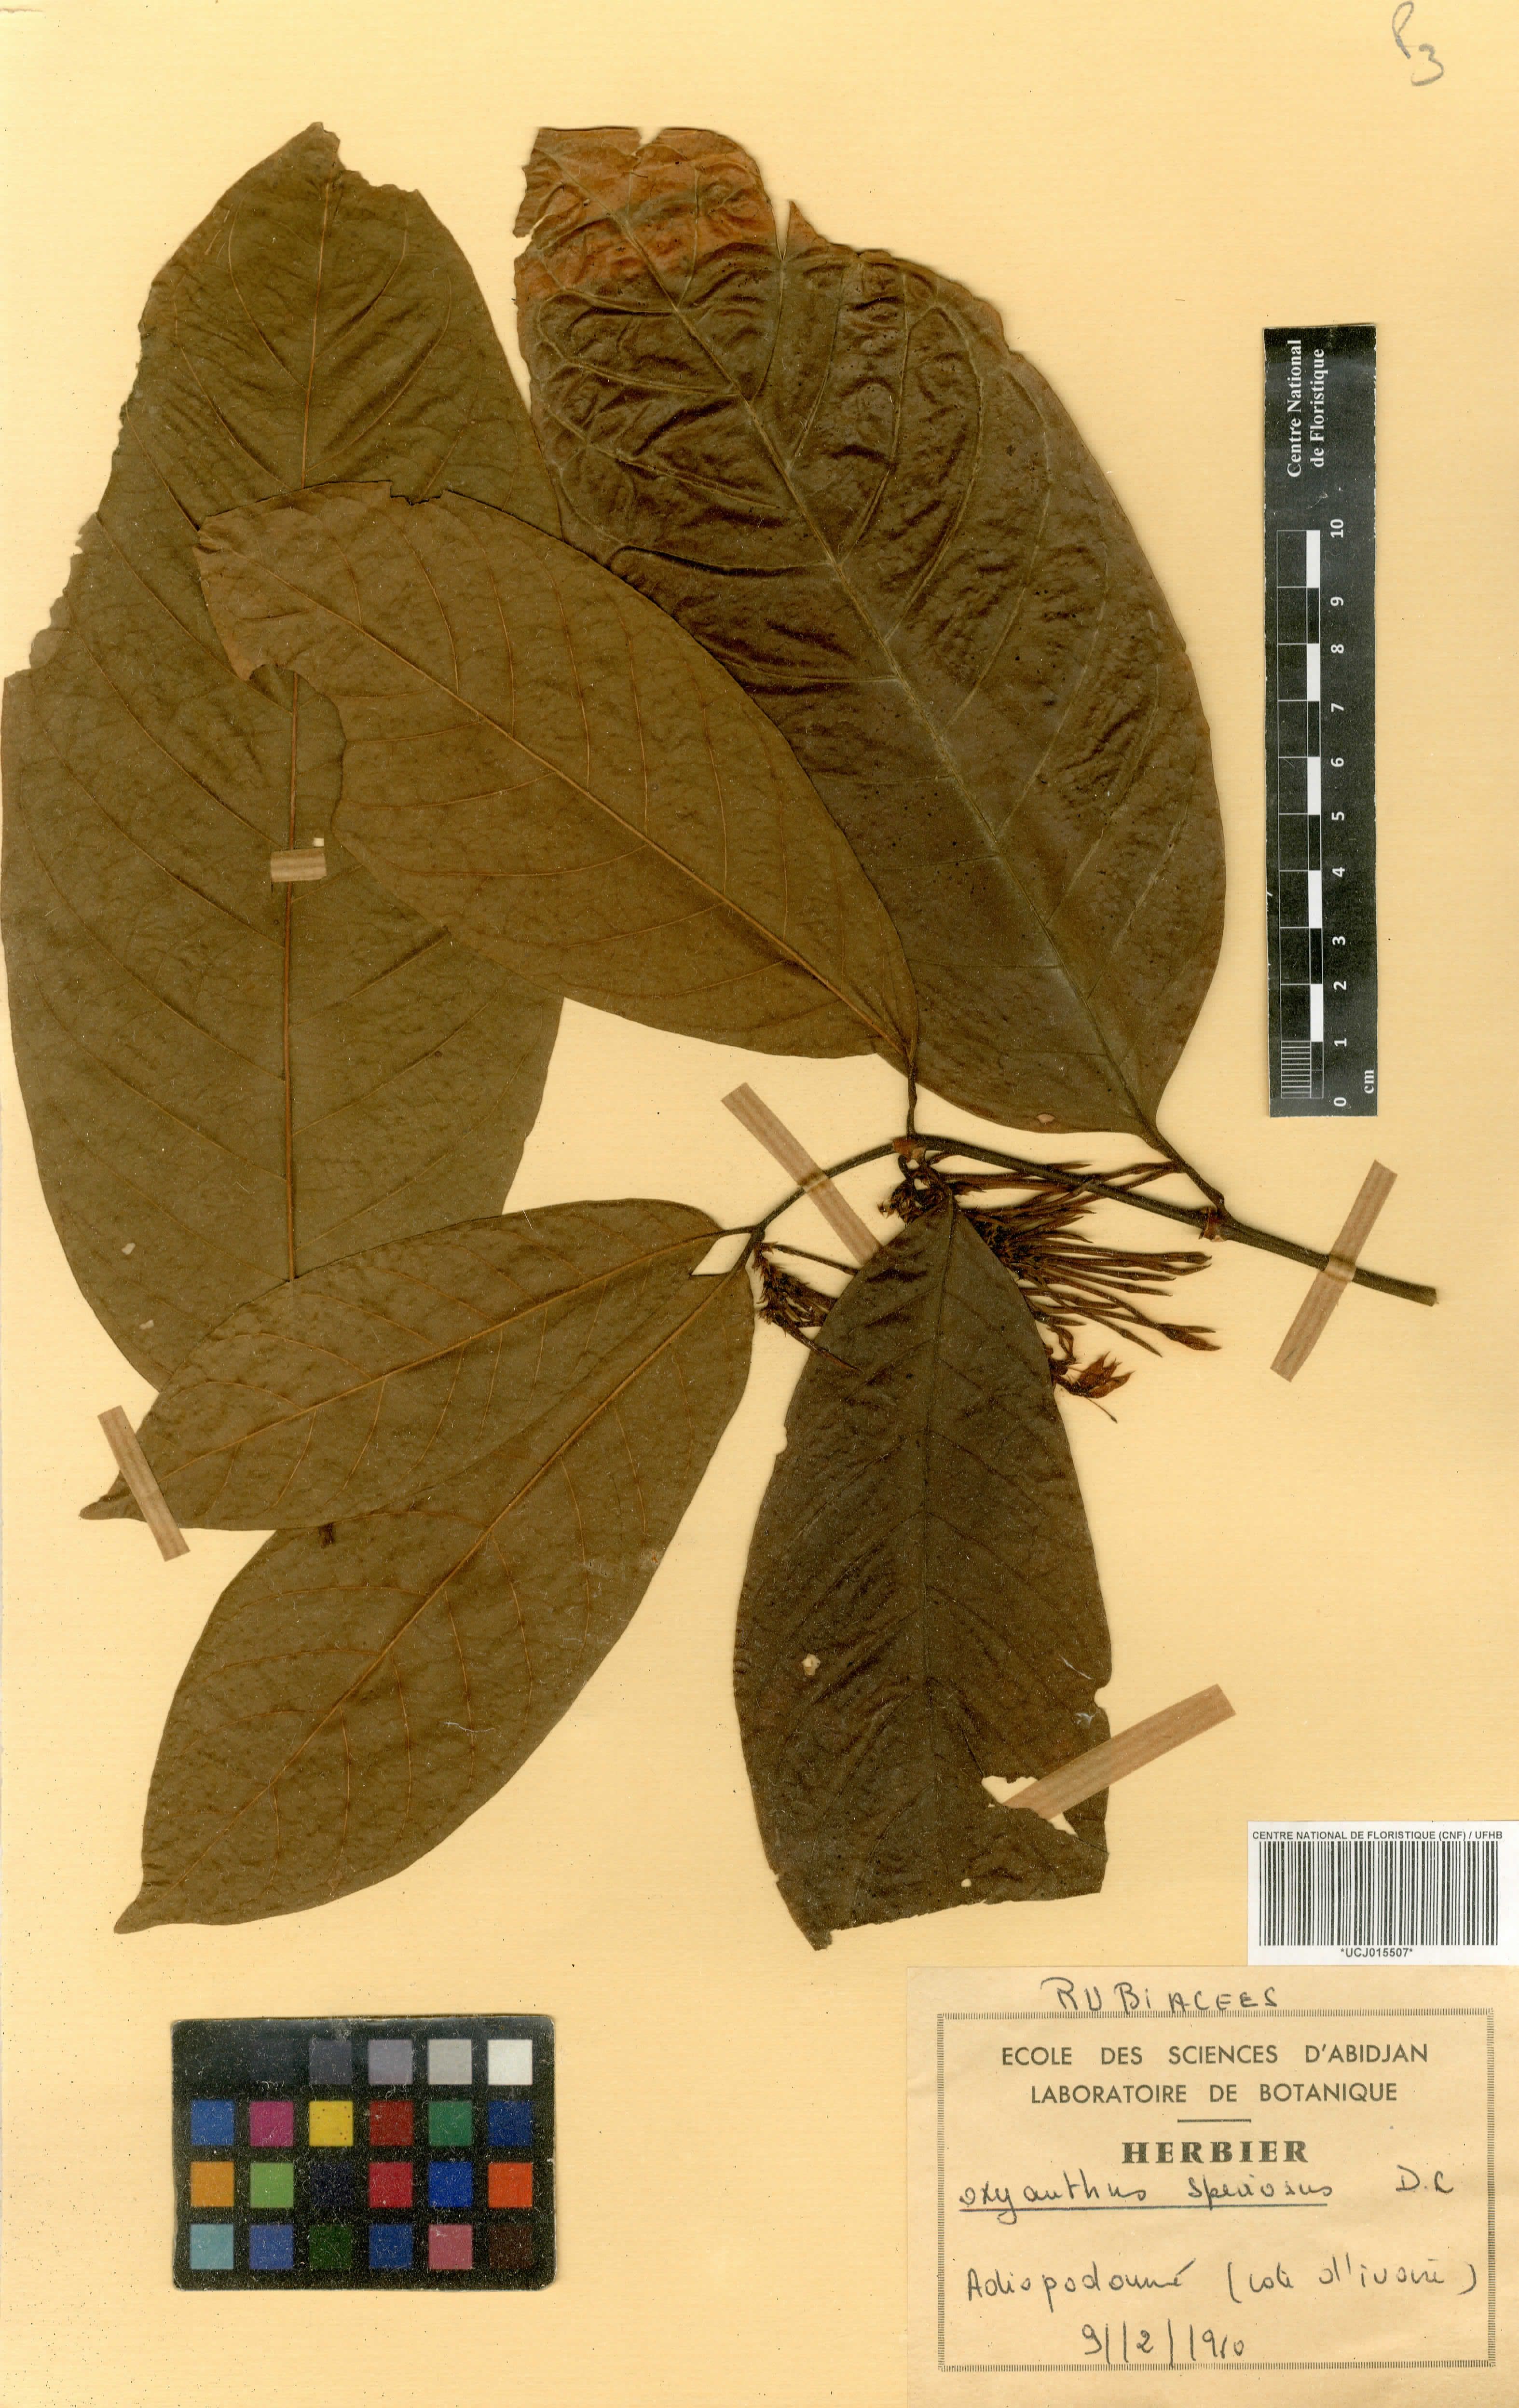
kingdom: Plantae
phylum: Tracheophyta
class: Magnoliopsida
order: Gentianales
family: Rubiaceae
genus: Oxyanthus
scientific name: Oxyanthus speciosus
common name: Whipstick loquat
